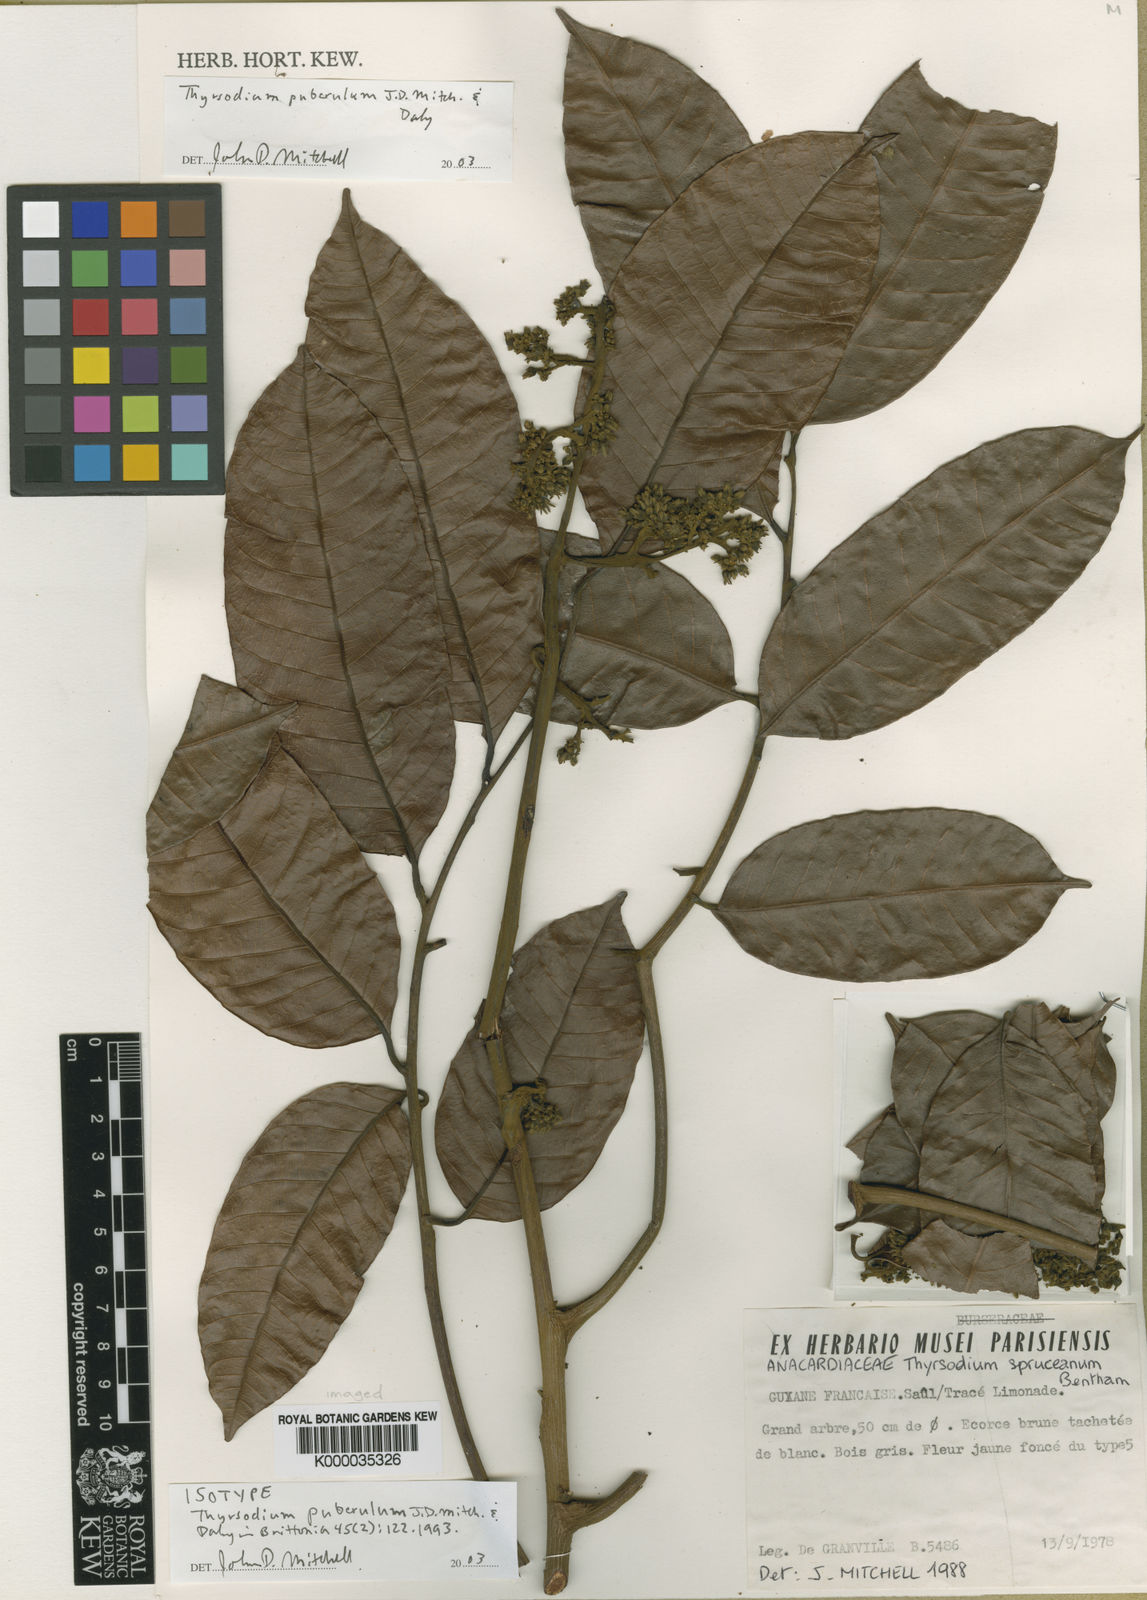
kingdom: Plantae
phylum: Tracheophyta
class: Magnoliopsida
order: Sapindales
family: Anacardiaceae
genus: Thyrsodium
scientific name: Thyrsodium puberulum
